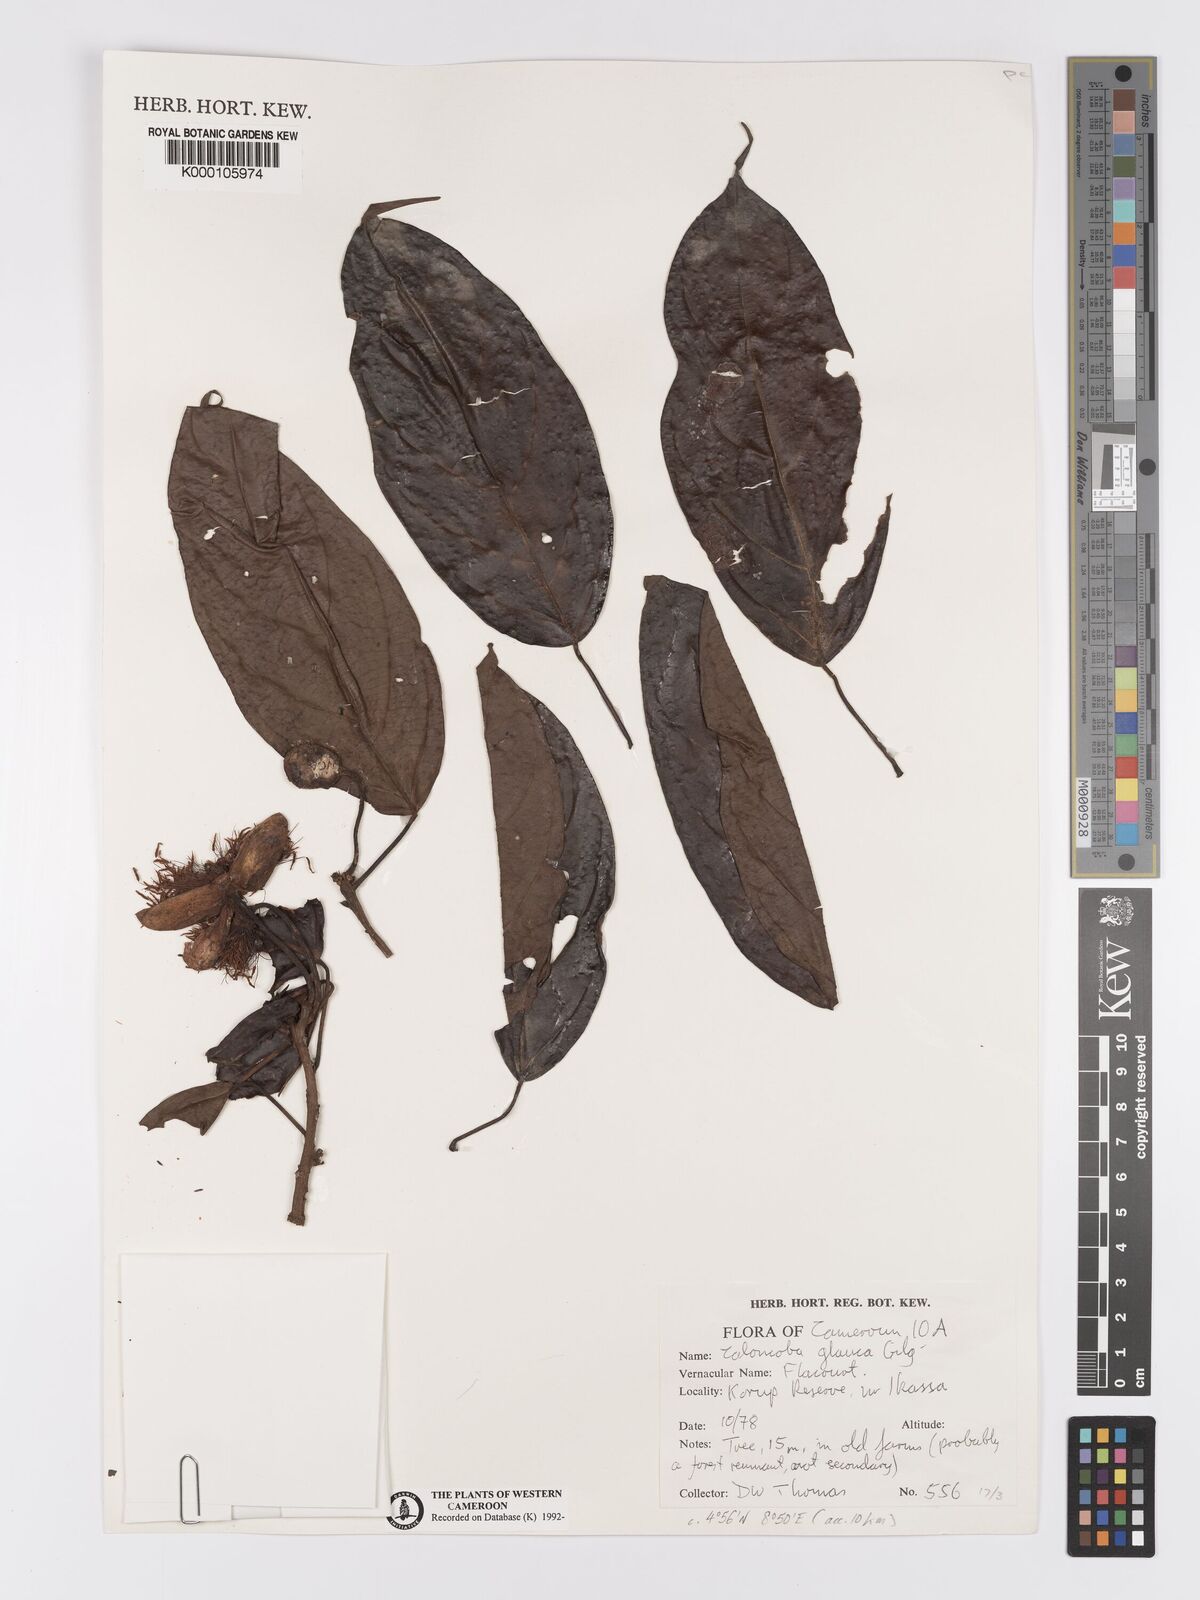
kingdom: Plantae
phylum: Tracheophyta
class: Magnoliopsida
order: Malpighiales
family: Achariaceae
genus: Caloncoba
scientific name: Caloncoba glauca
